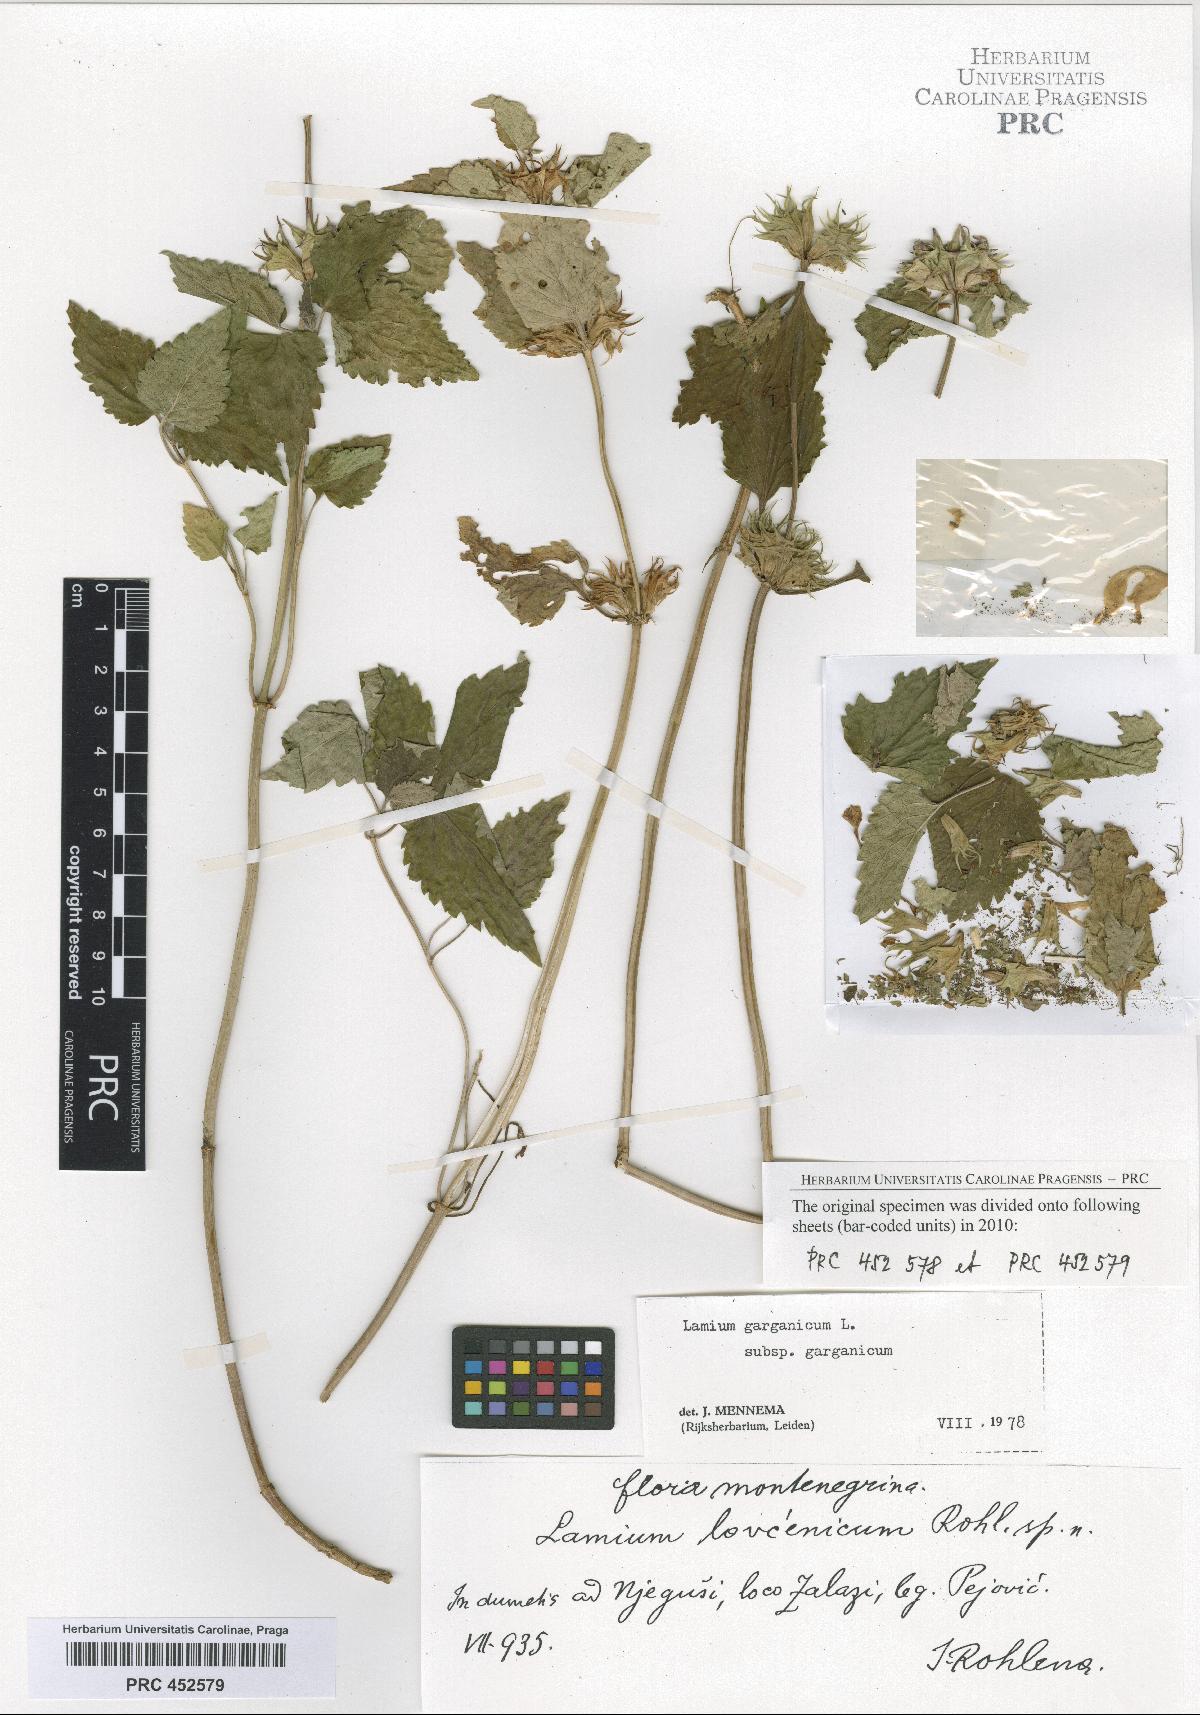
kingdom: Plantae
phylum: Tracheophyta
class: Magnoliopsida
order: Lamiales
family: Lamiaceae
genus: Lamium
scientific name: Lamium garganicum
